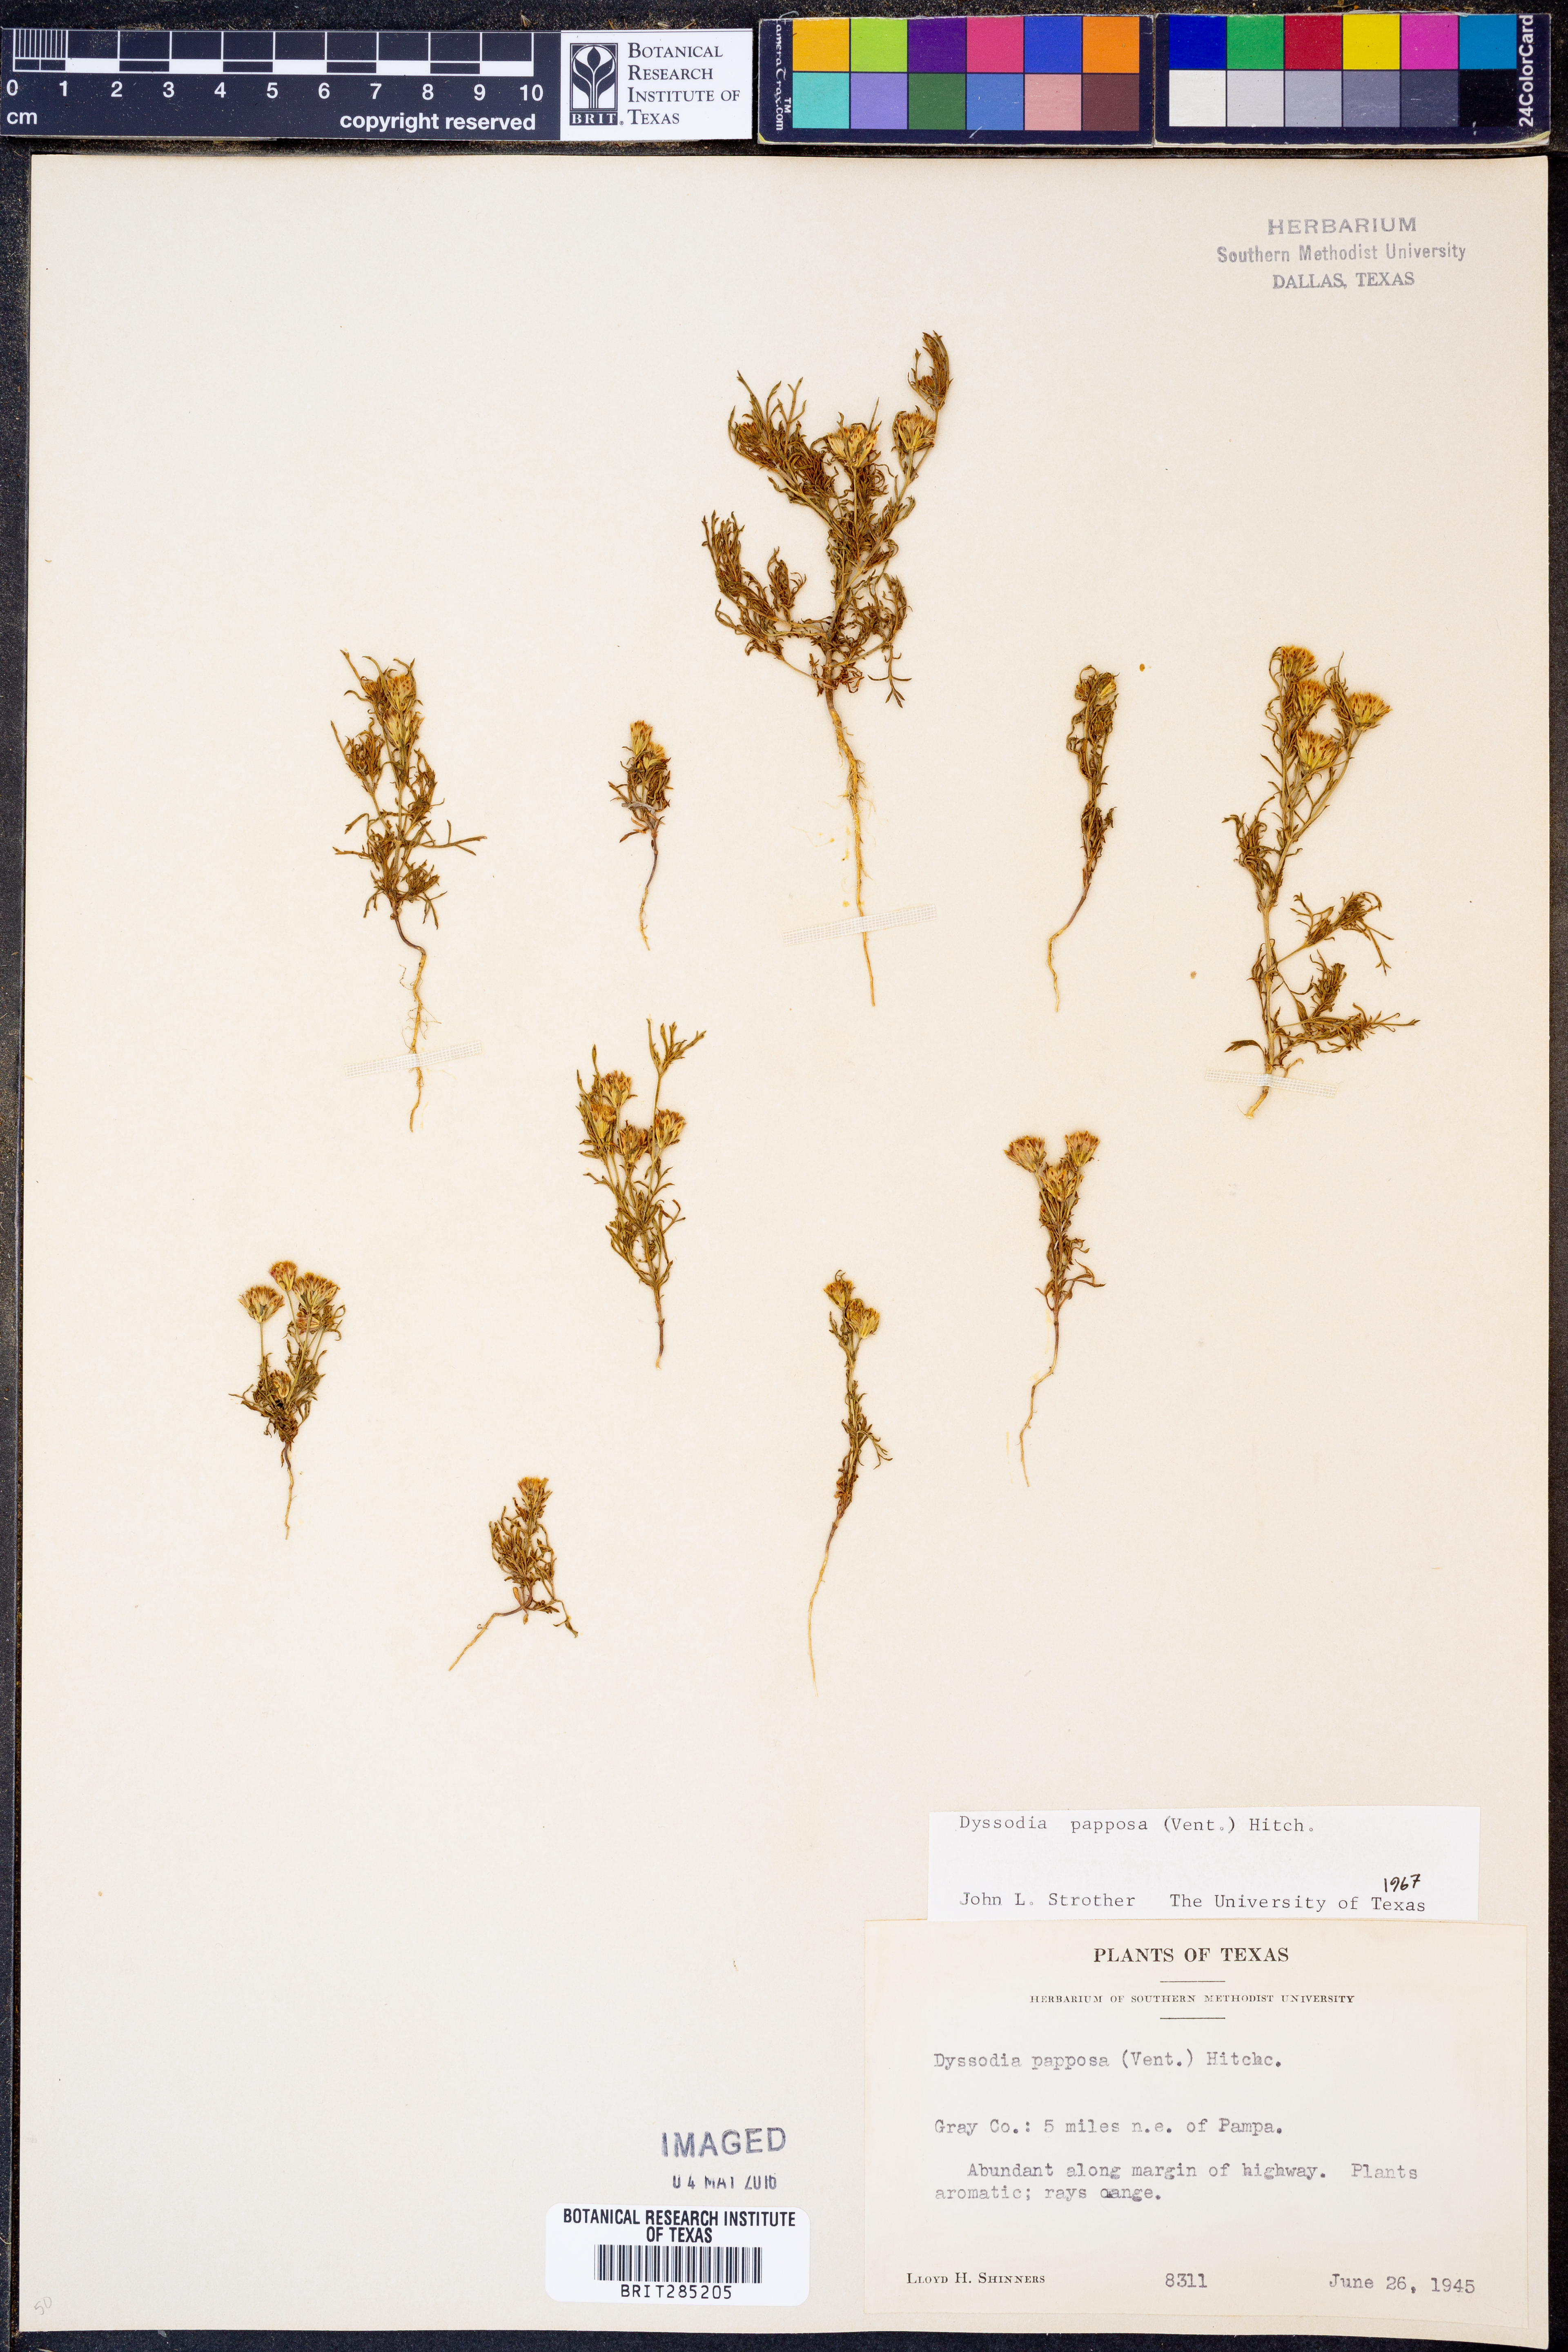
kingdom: Plantae
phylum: Tracheophyta
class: Magnoliopsida
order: Asterales
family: Asteraceae
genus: Dyssodia
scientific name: Dyssodia papposa
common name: Dogweed
